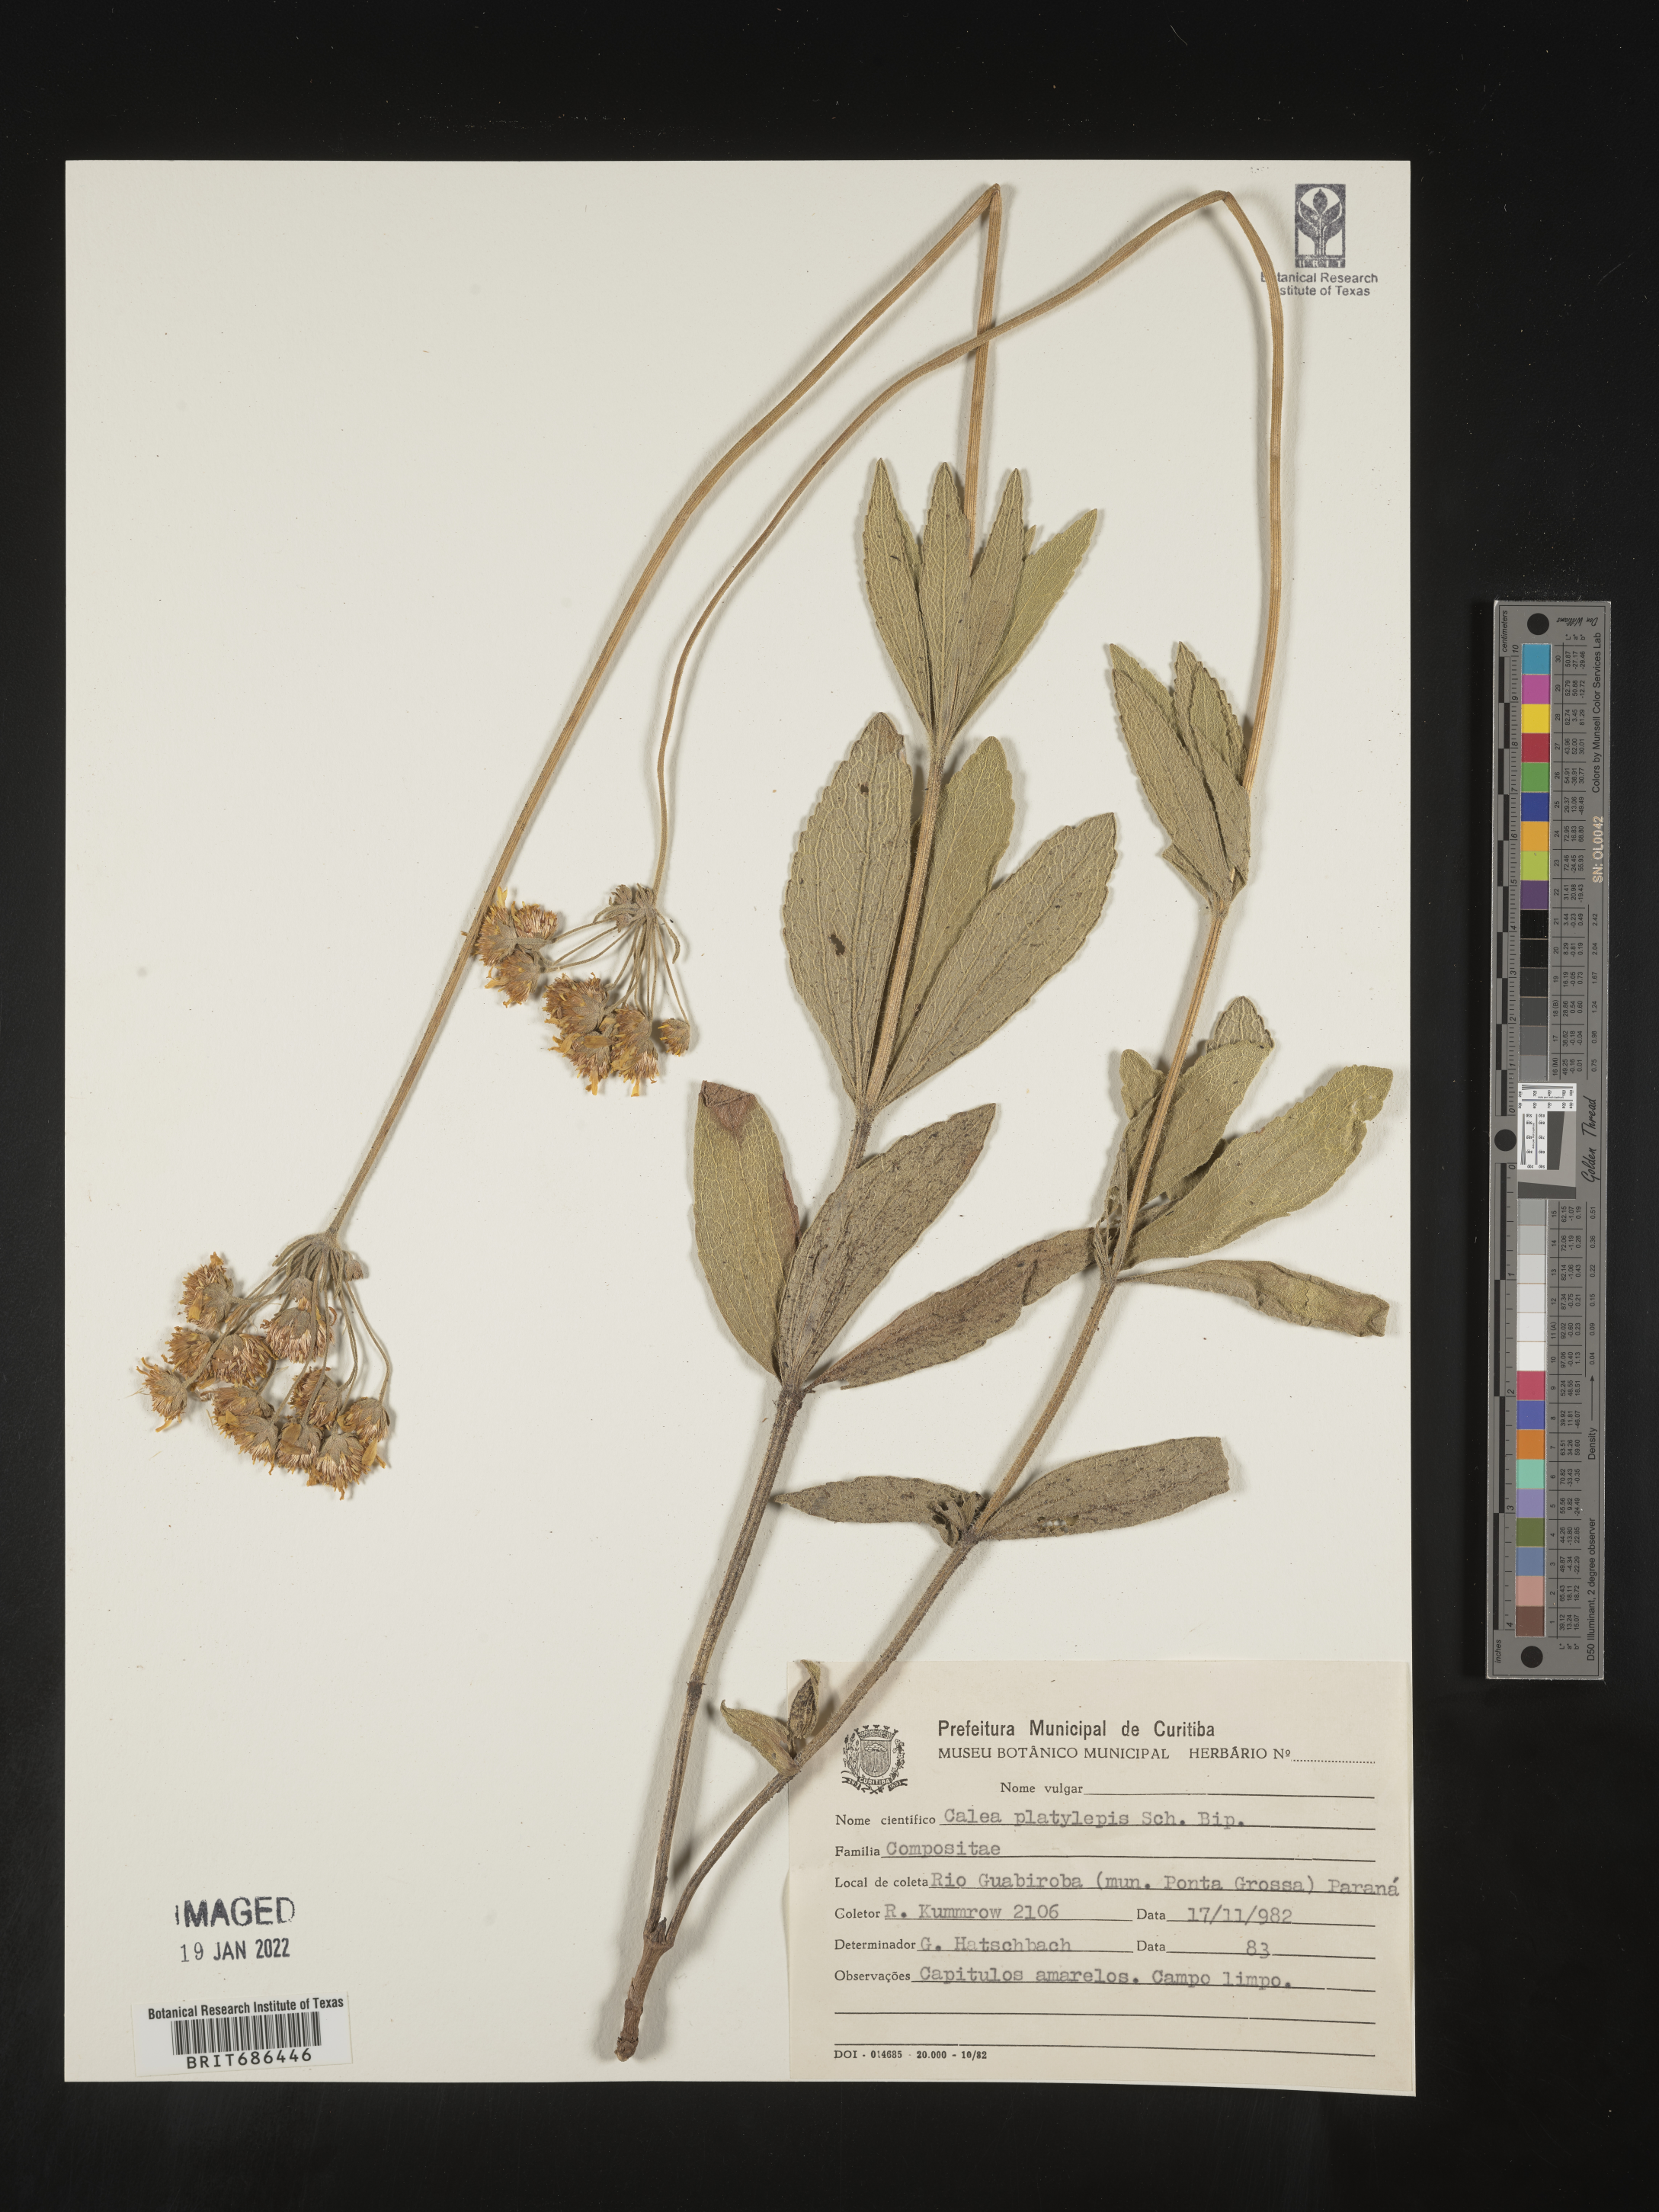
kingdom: Plantae
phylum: Tracheophyta
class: Magnoliopsida
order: Asterales
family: Asteraceae
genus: Calea
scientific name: Calea mediterranea
